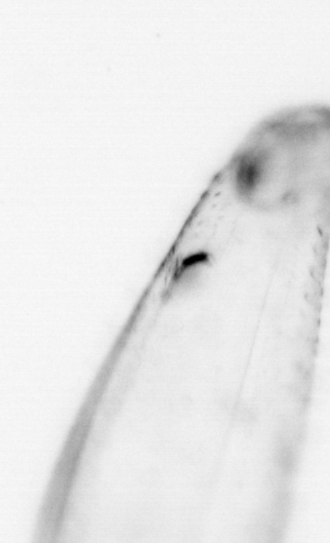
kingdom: Animalia
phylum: Chaetognatha
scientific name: Chaetognatha
